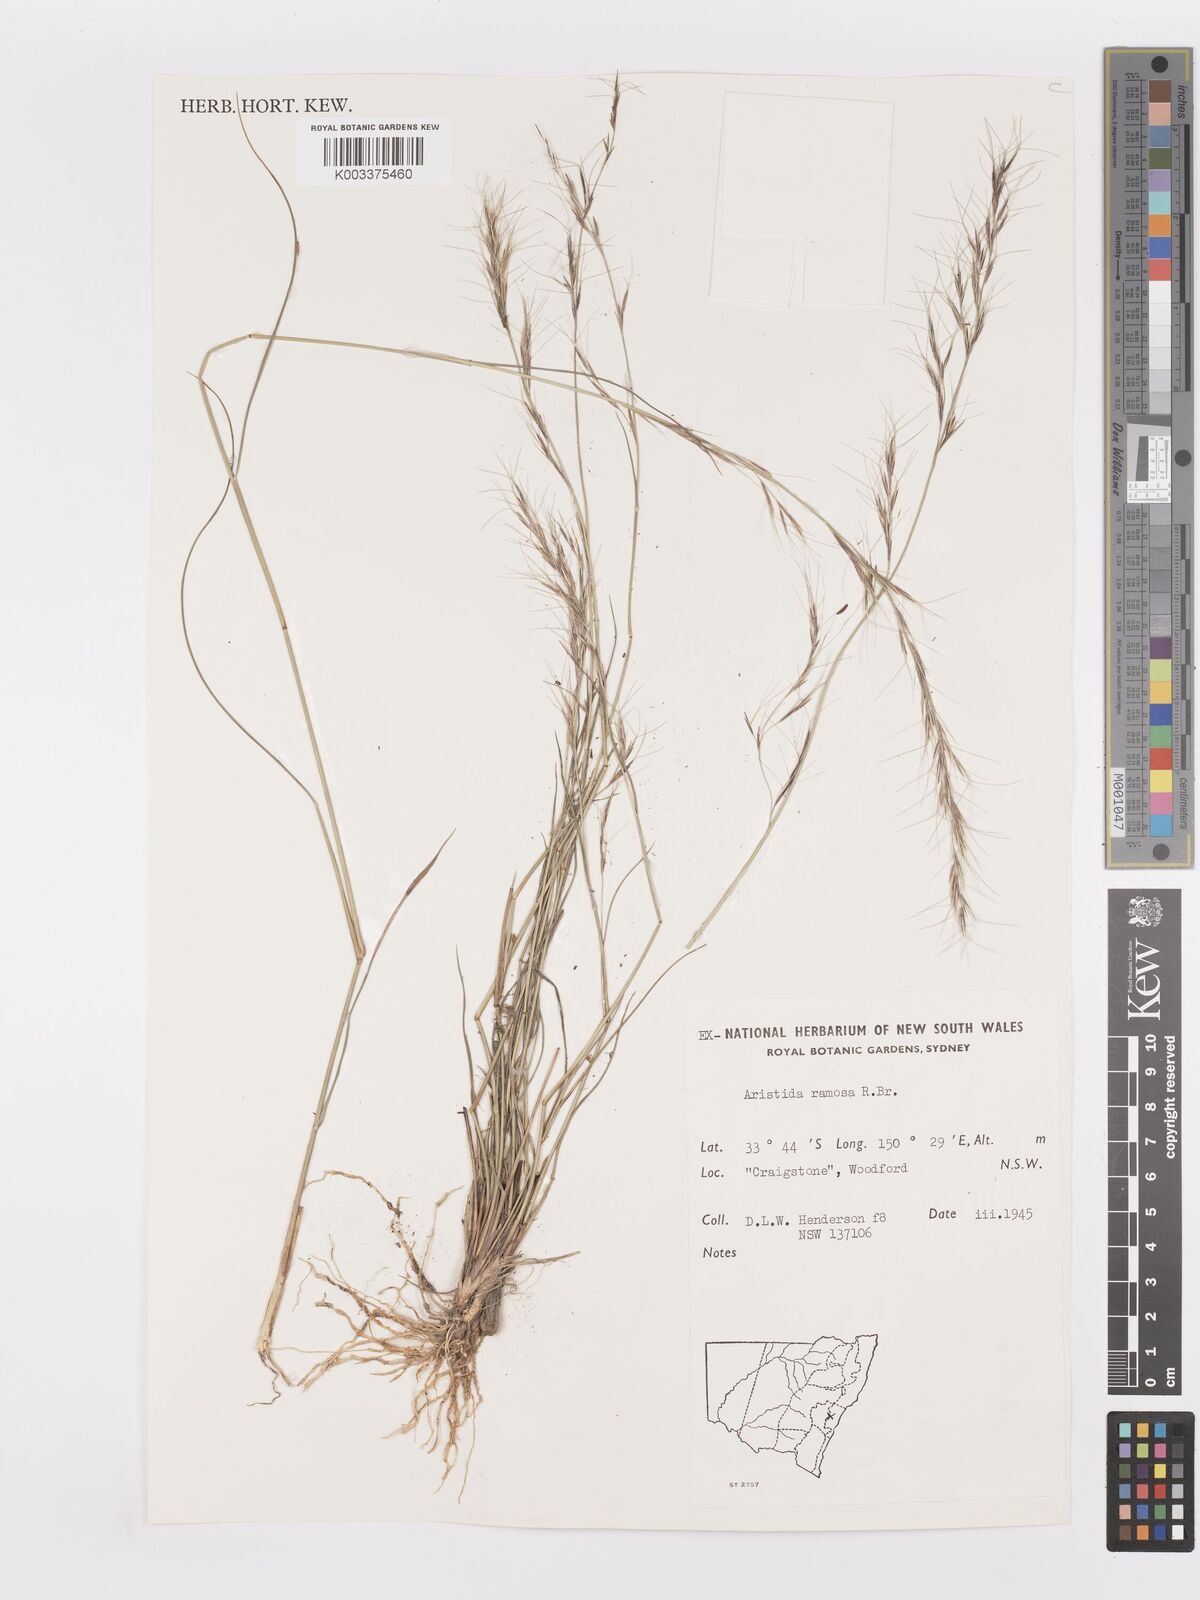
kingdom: Plantae
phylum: Tracheophyta
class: Liliopsida
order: Poales
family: Poaceae
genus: Aristida
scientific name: Aristida ramosa
